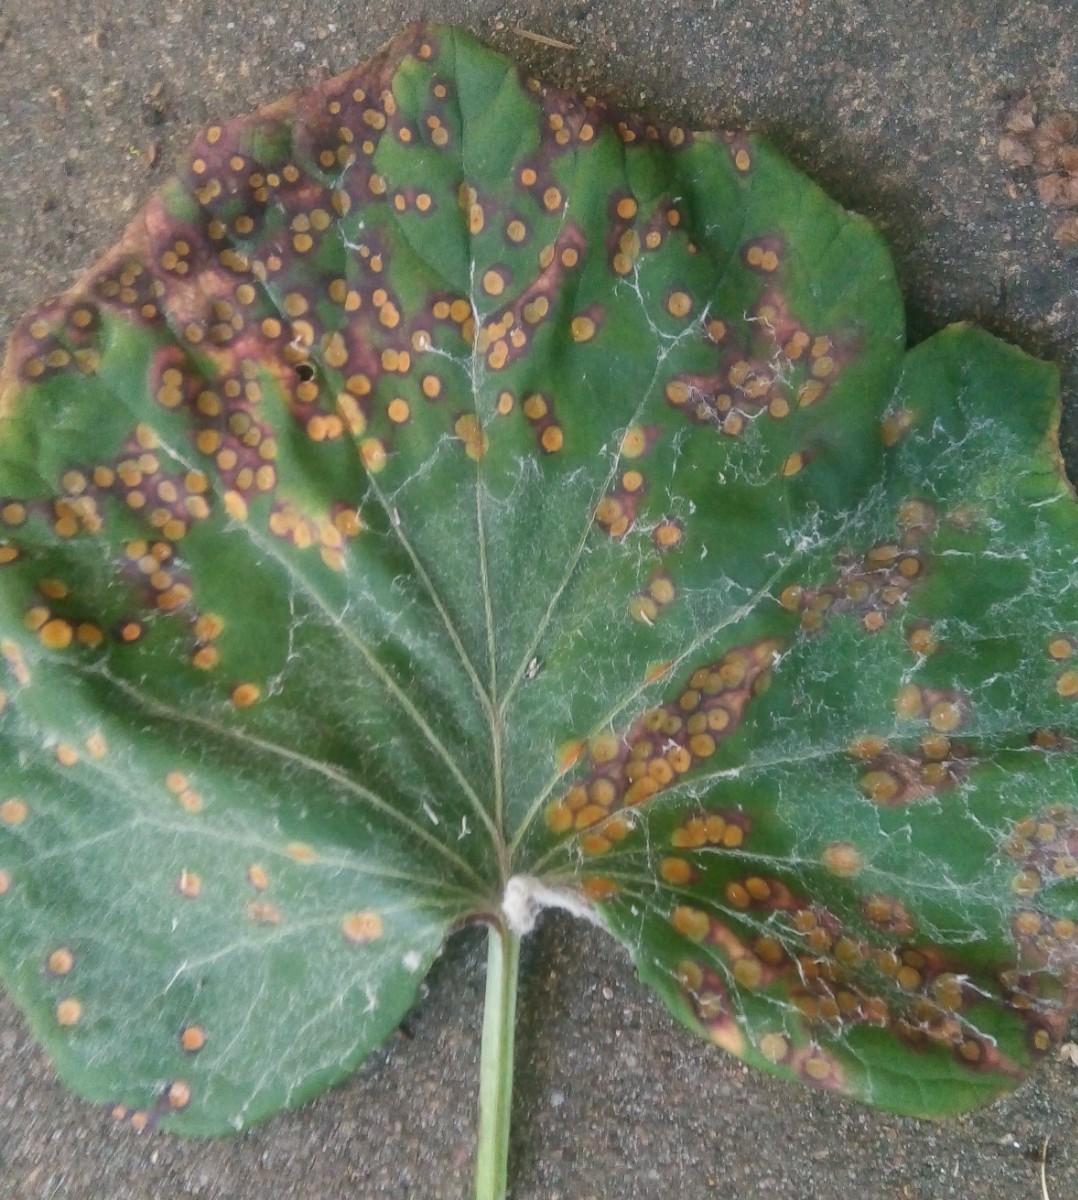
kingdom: Fungi
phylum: Basidiomycota
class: Pucciniomycetes
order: Pucciniales
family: Pucciniaceae
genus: Puccinia
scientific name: Puccinia poarum
